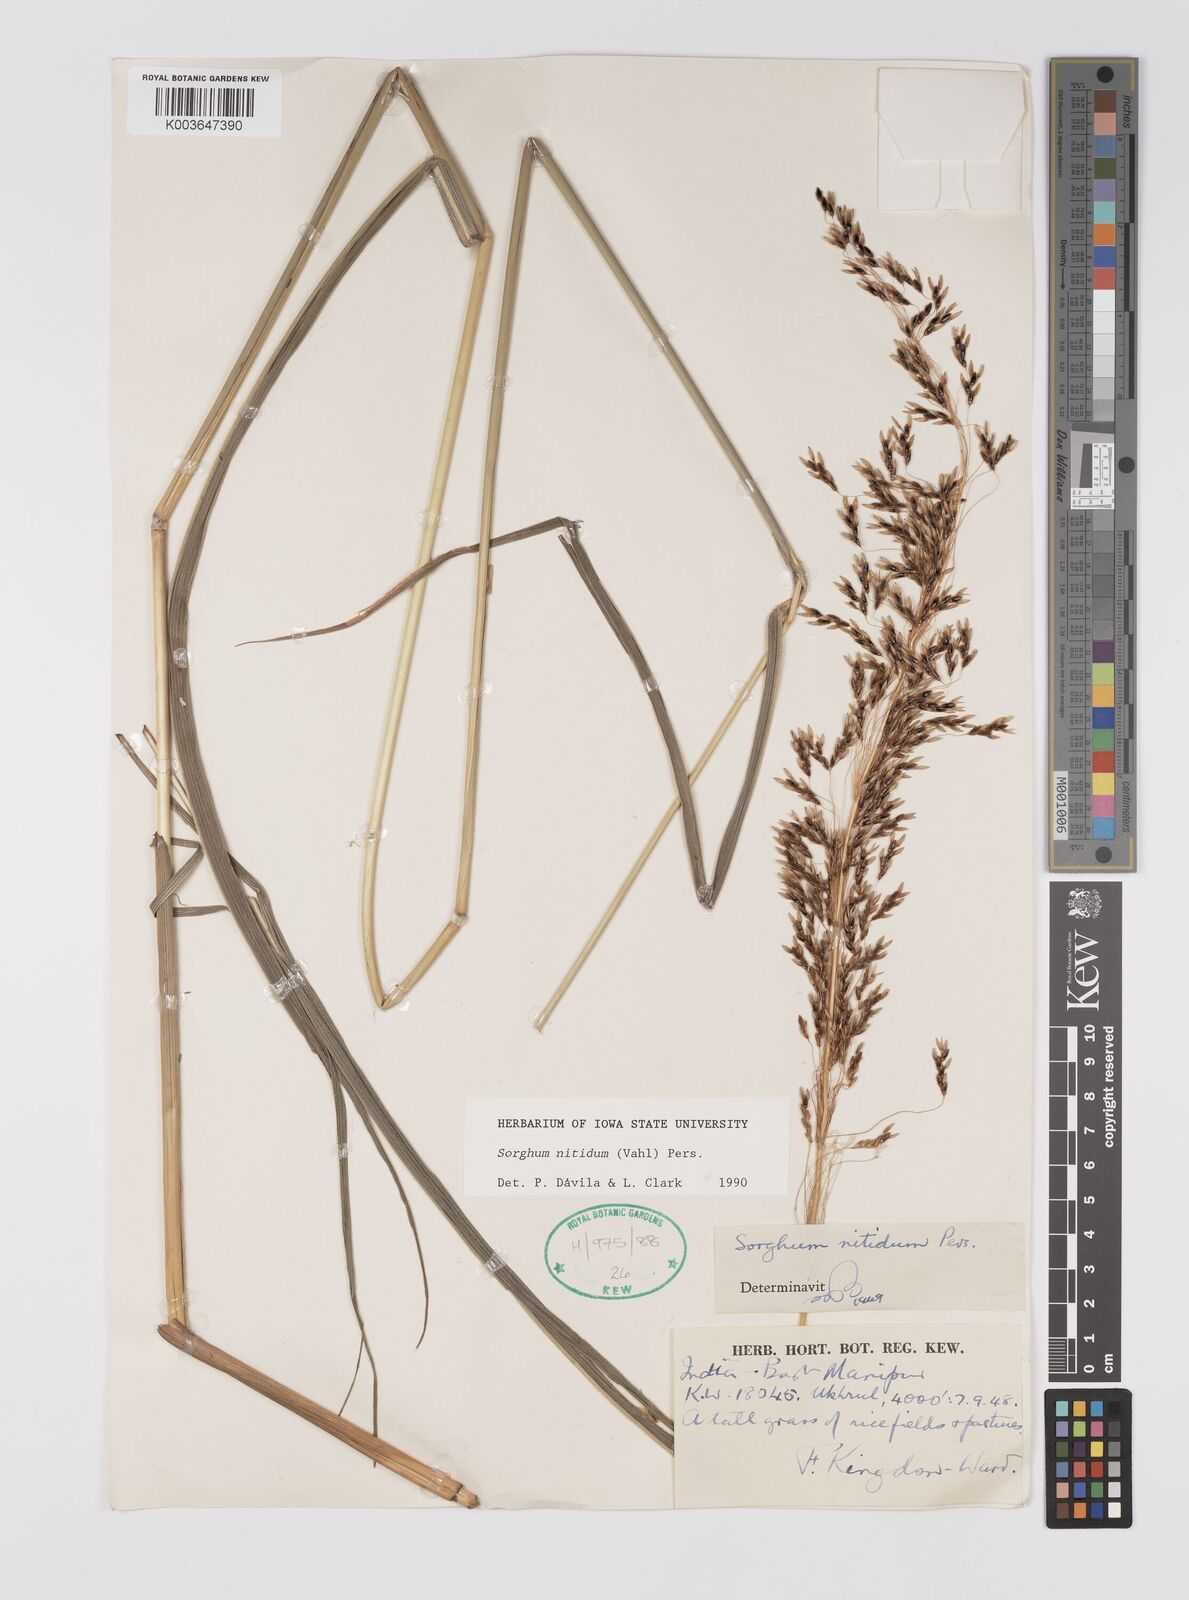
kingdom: Plantae
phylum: Tracheophyta
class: Liliopsida
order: Poales
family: Poaceae
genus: Sorghum
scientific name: Sorghum nitidum
